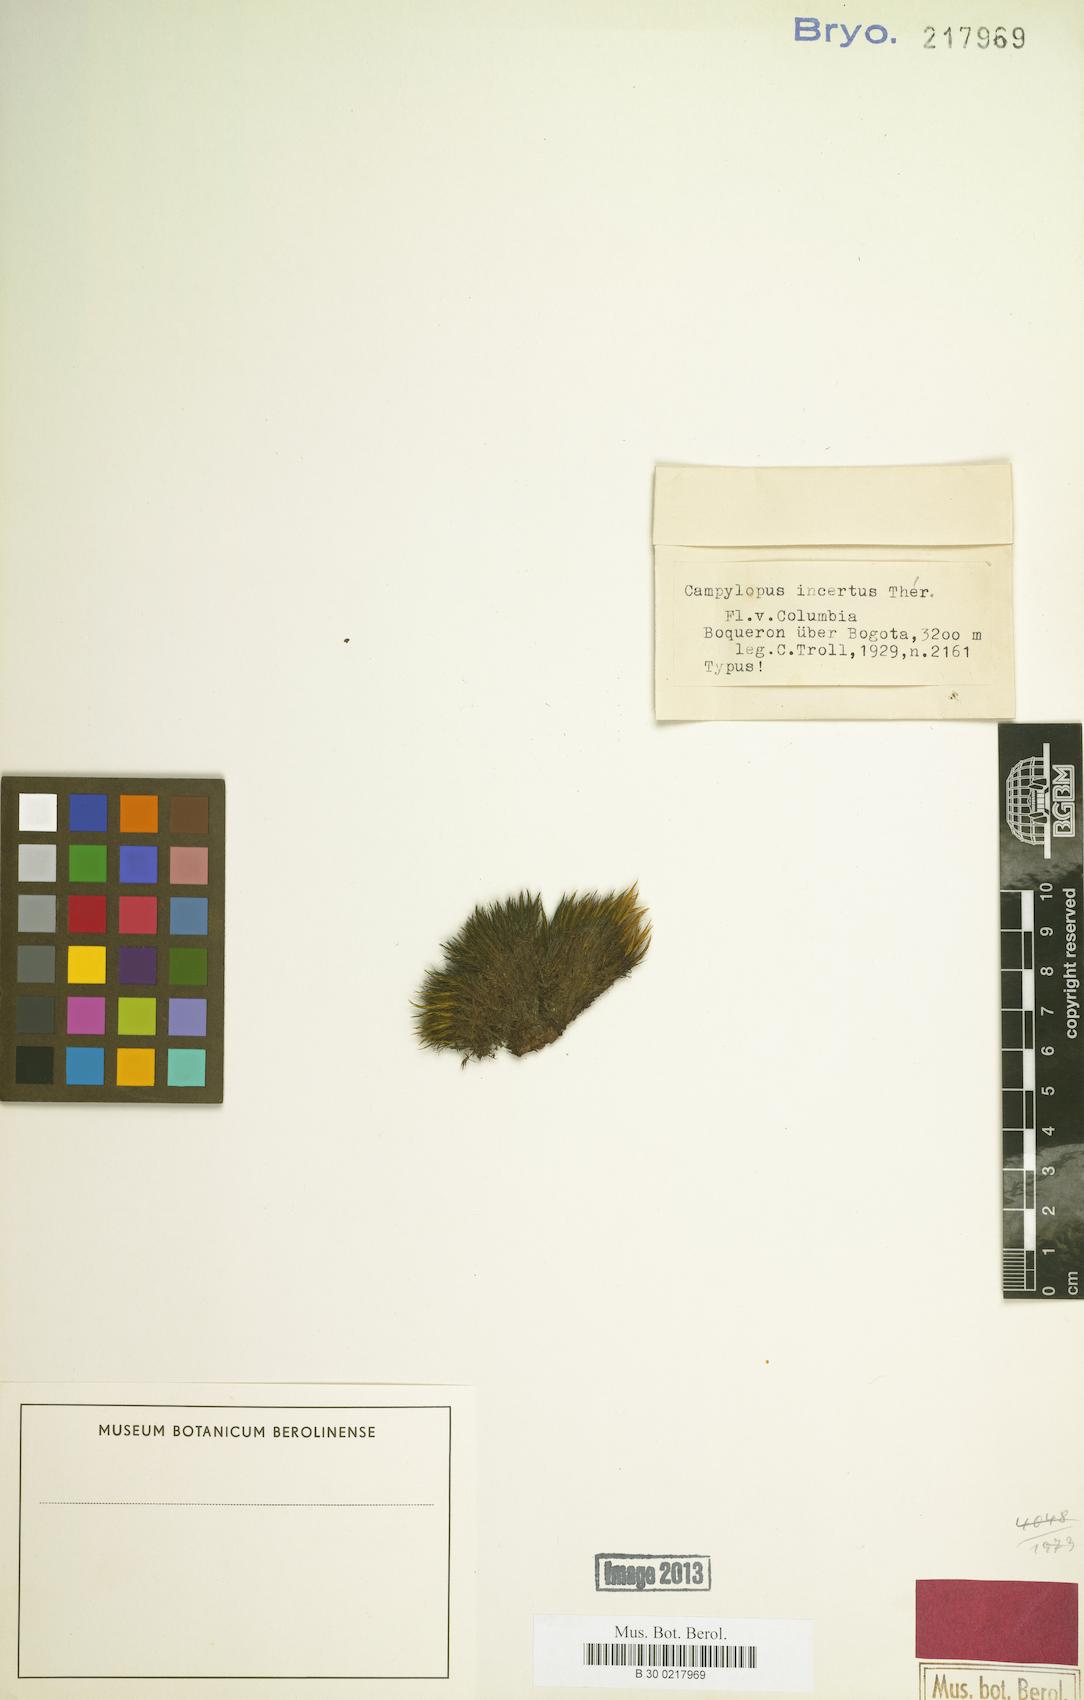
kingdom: Plantae
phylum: Bryophyta
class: Bryopsida
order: Dicranales
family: Leucobryaceae
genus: Campylopus
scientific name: Campylopus incertus
